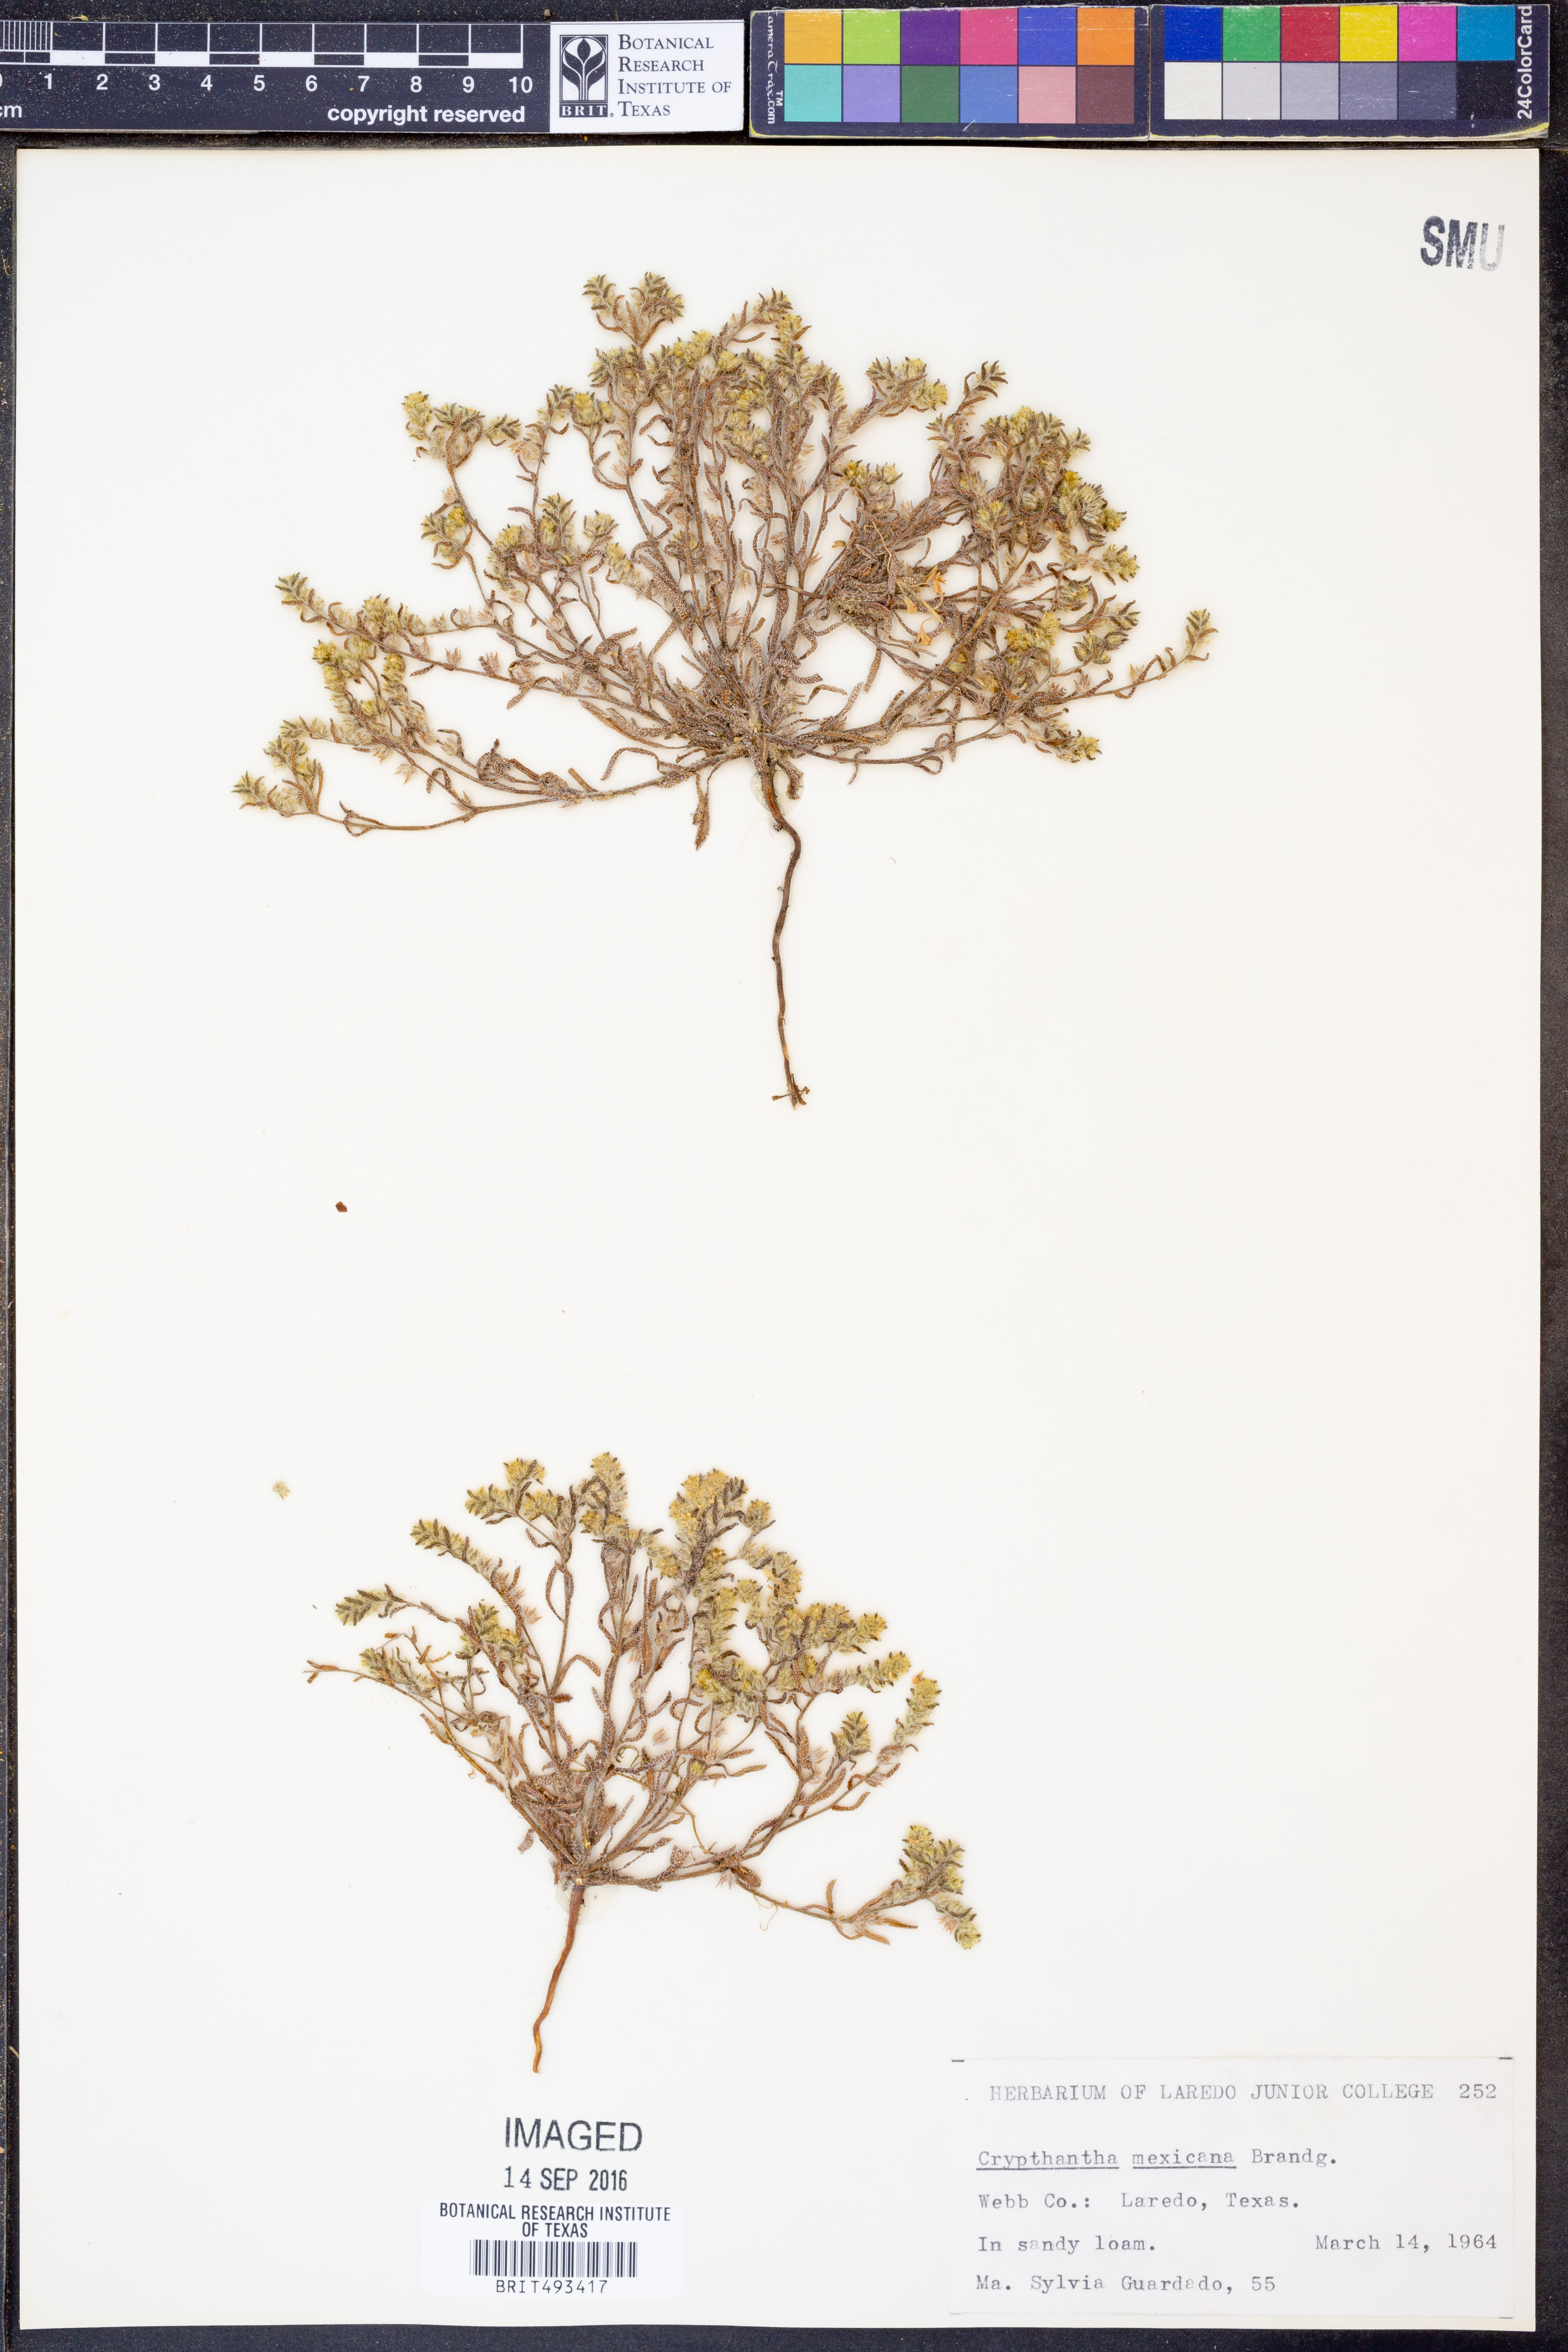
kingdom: Plantae
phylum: Tracheophyta
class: Magnoliopsida
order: Boraginales
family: Boraginaceae
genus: Johnstonella
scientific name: Johnstonella mexicana
